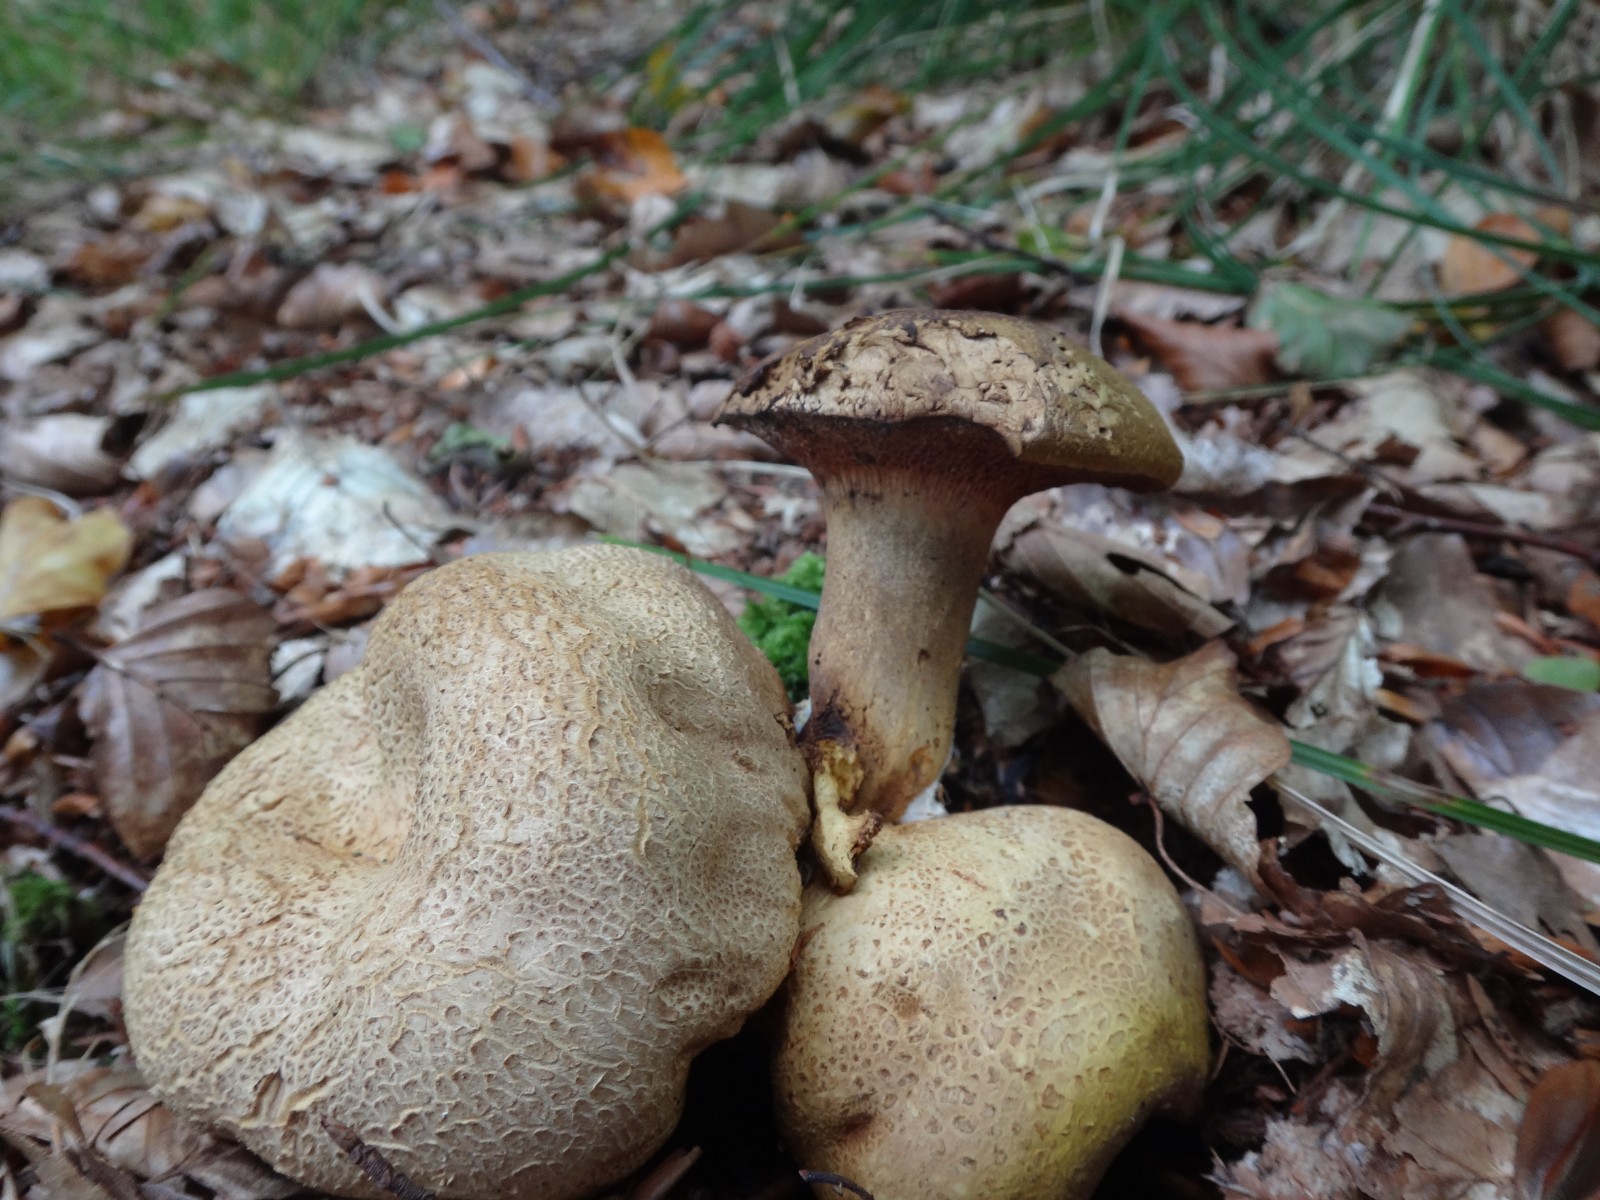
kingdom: Fungi
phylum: Basidiomycota
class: Agaricomycetes
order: Boletales
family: Boletaceae
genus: Pseudoboletus
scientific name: Pseudoboletus parasiticus
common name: snyltende rørhat
